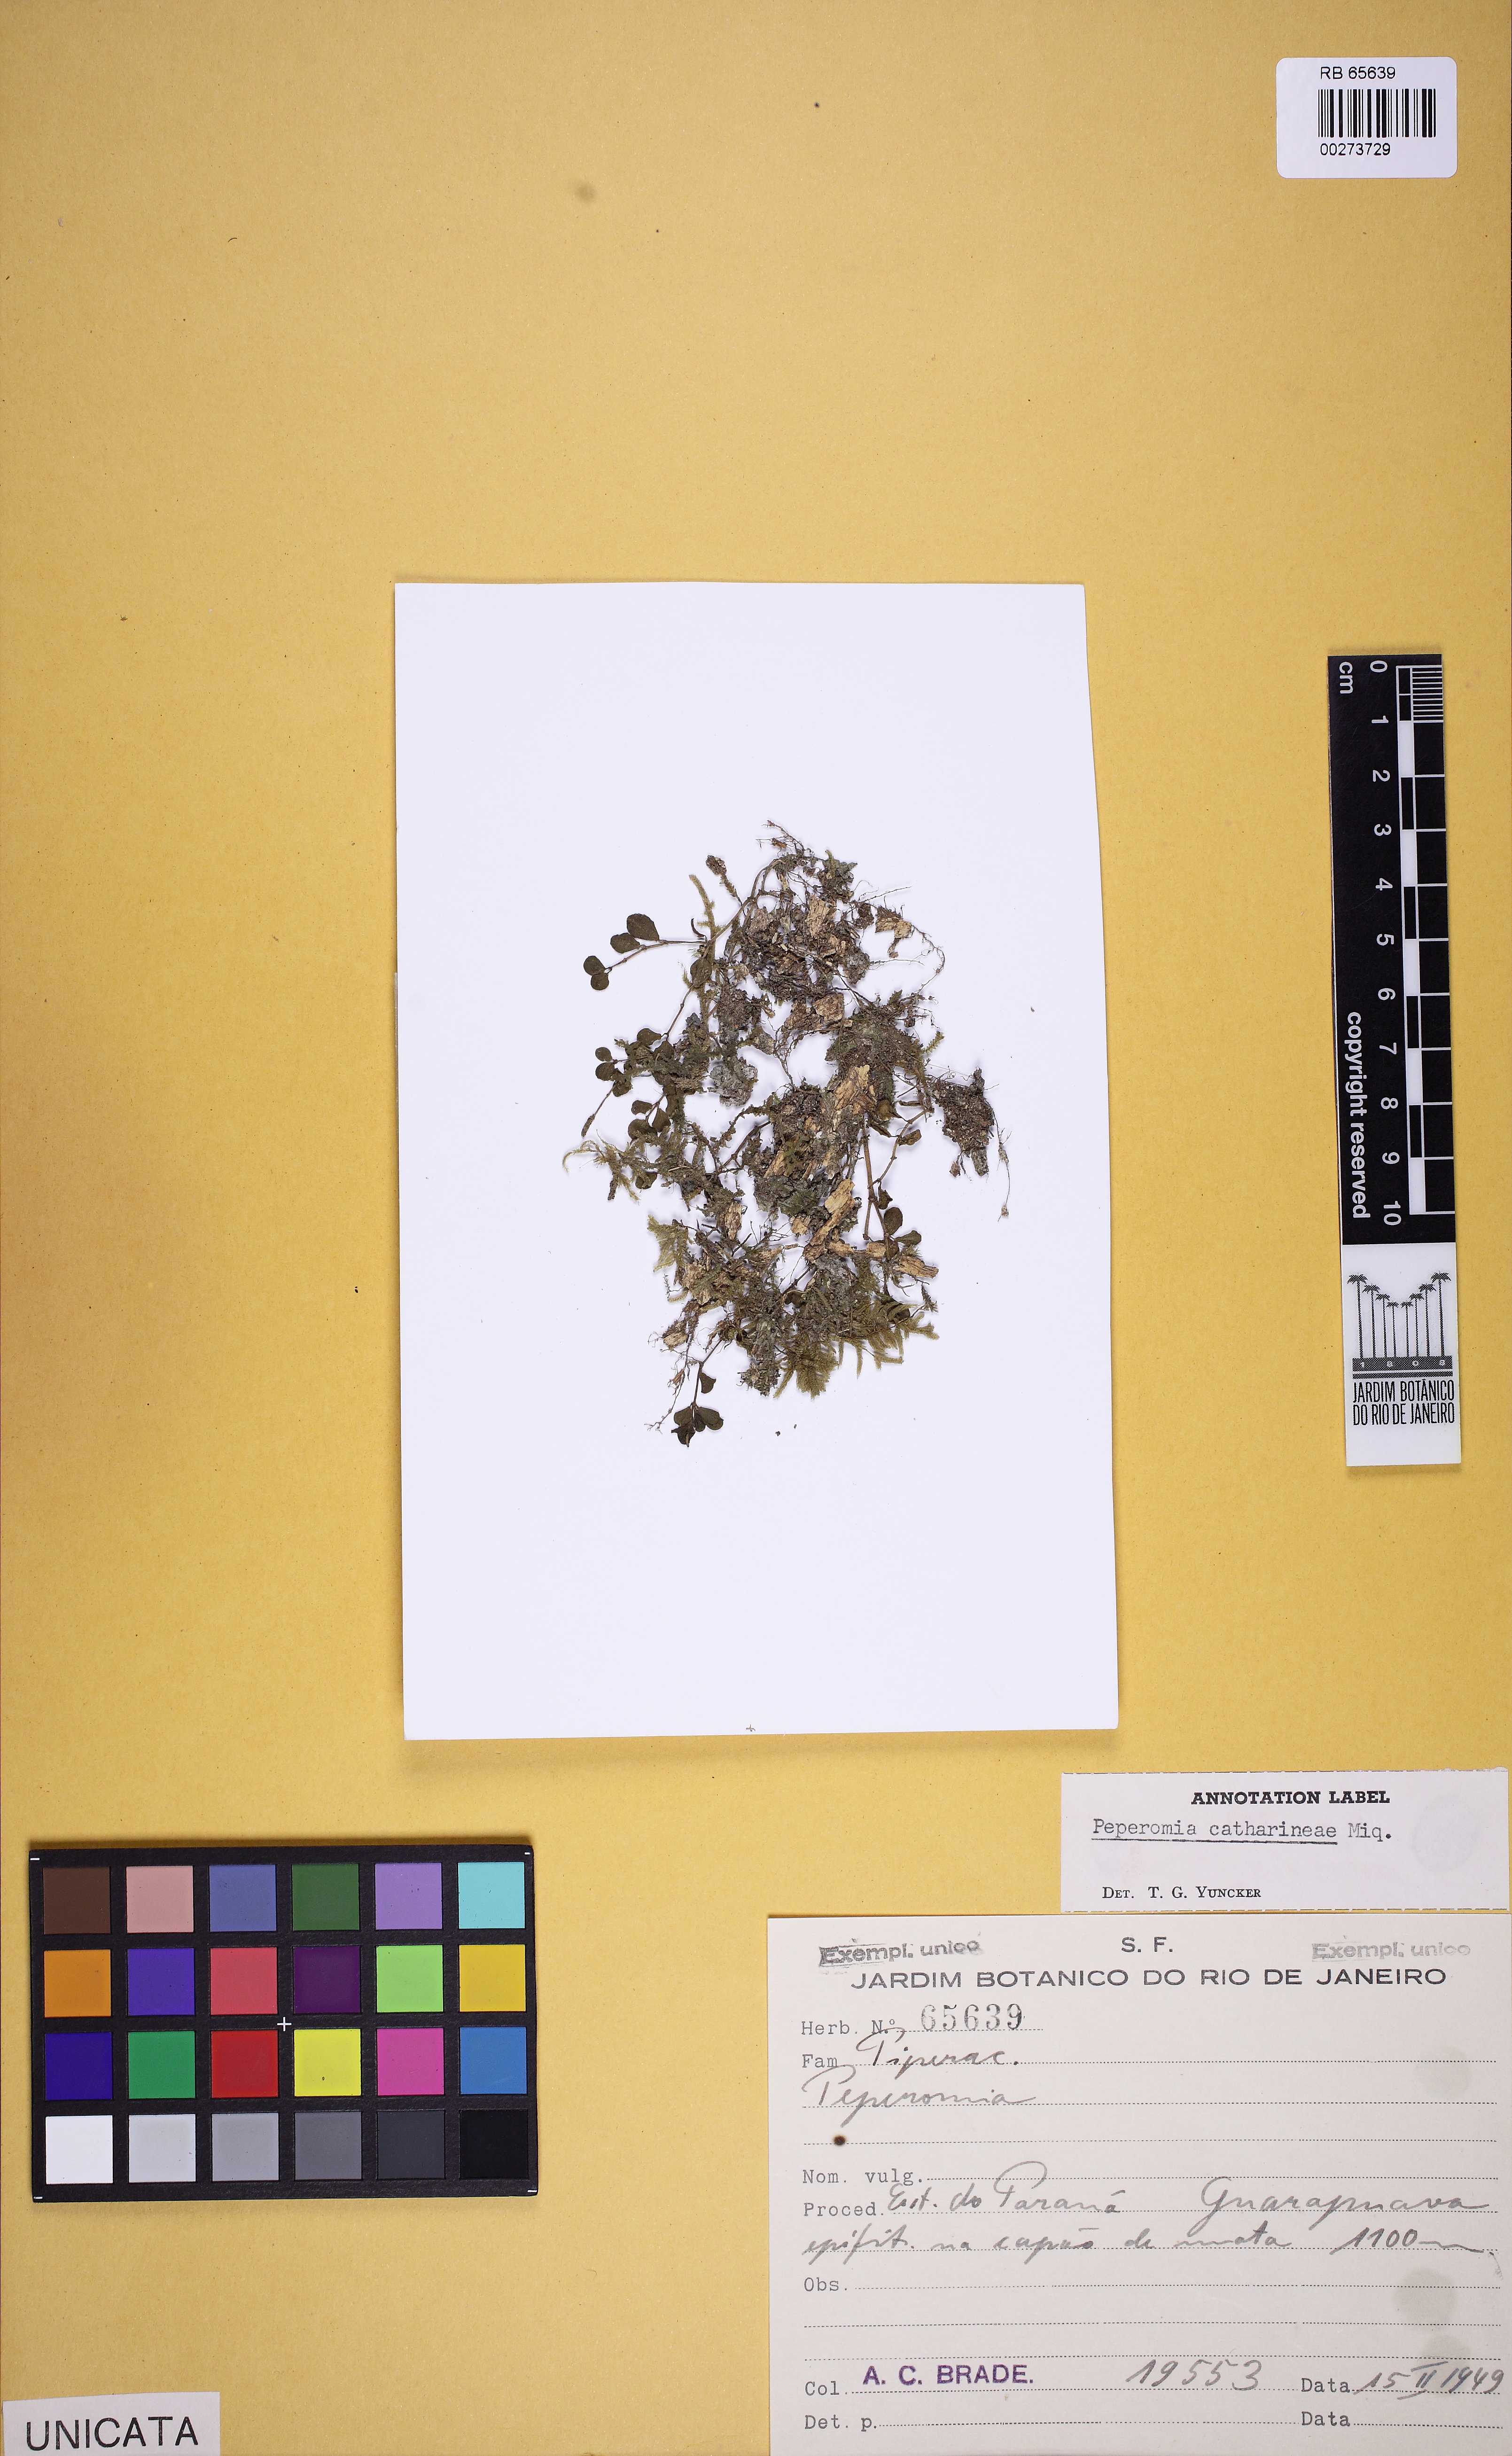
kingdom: Plantae
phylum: Tracheophyta
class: Magnoliopsida
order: Piperales
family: Piperaceae
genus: Peperomia
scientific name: Peperomia catharinae
